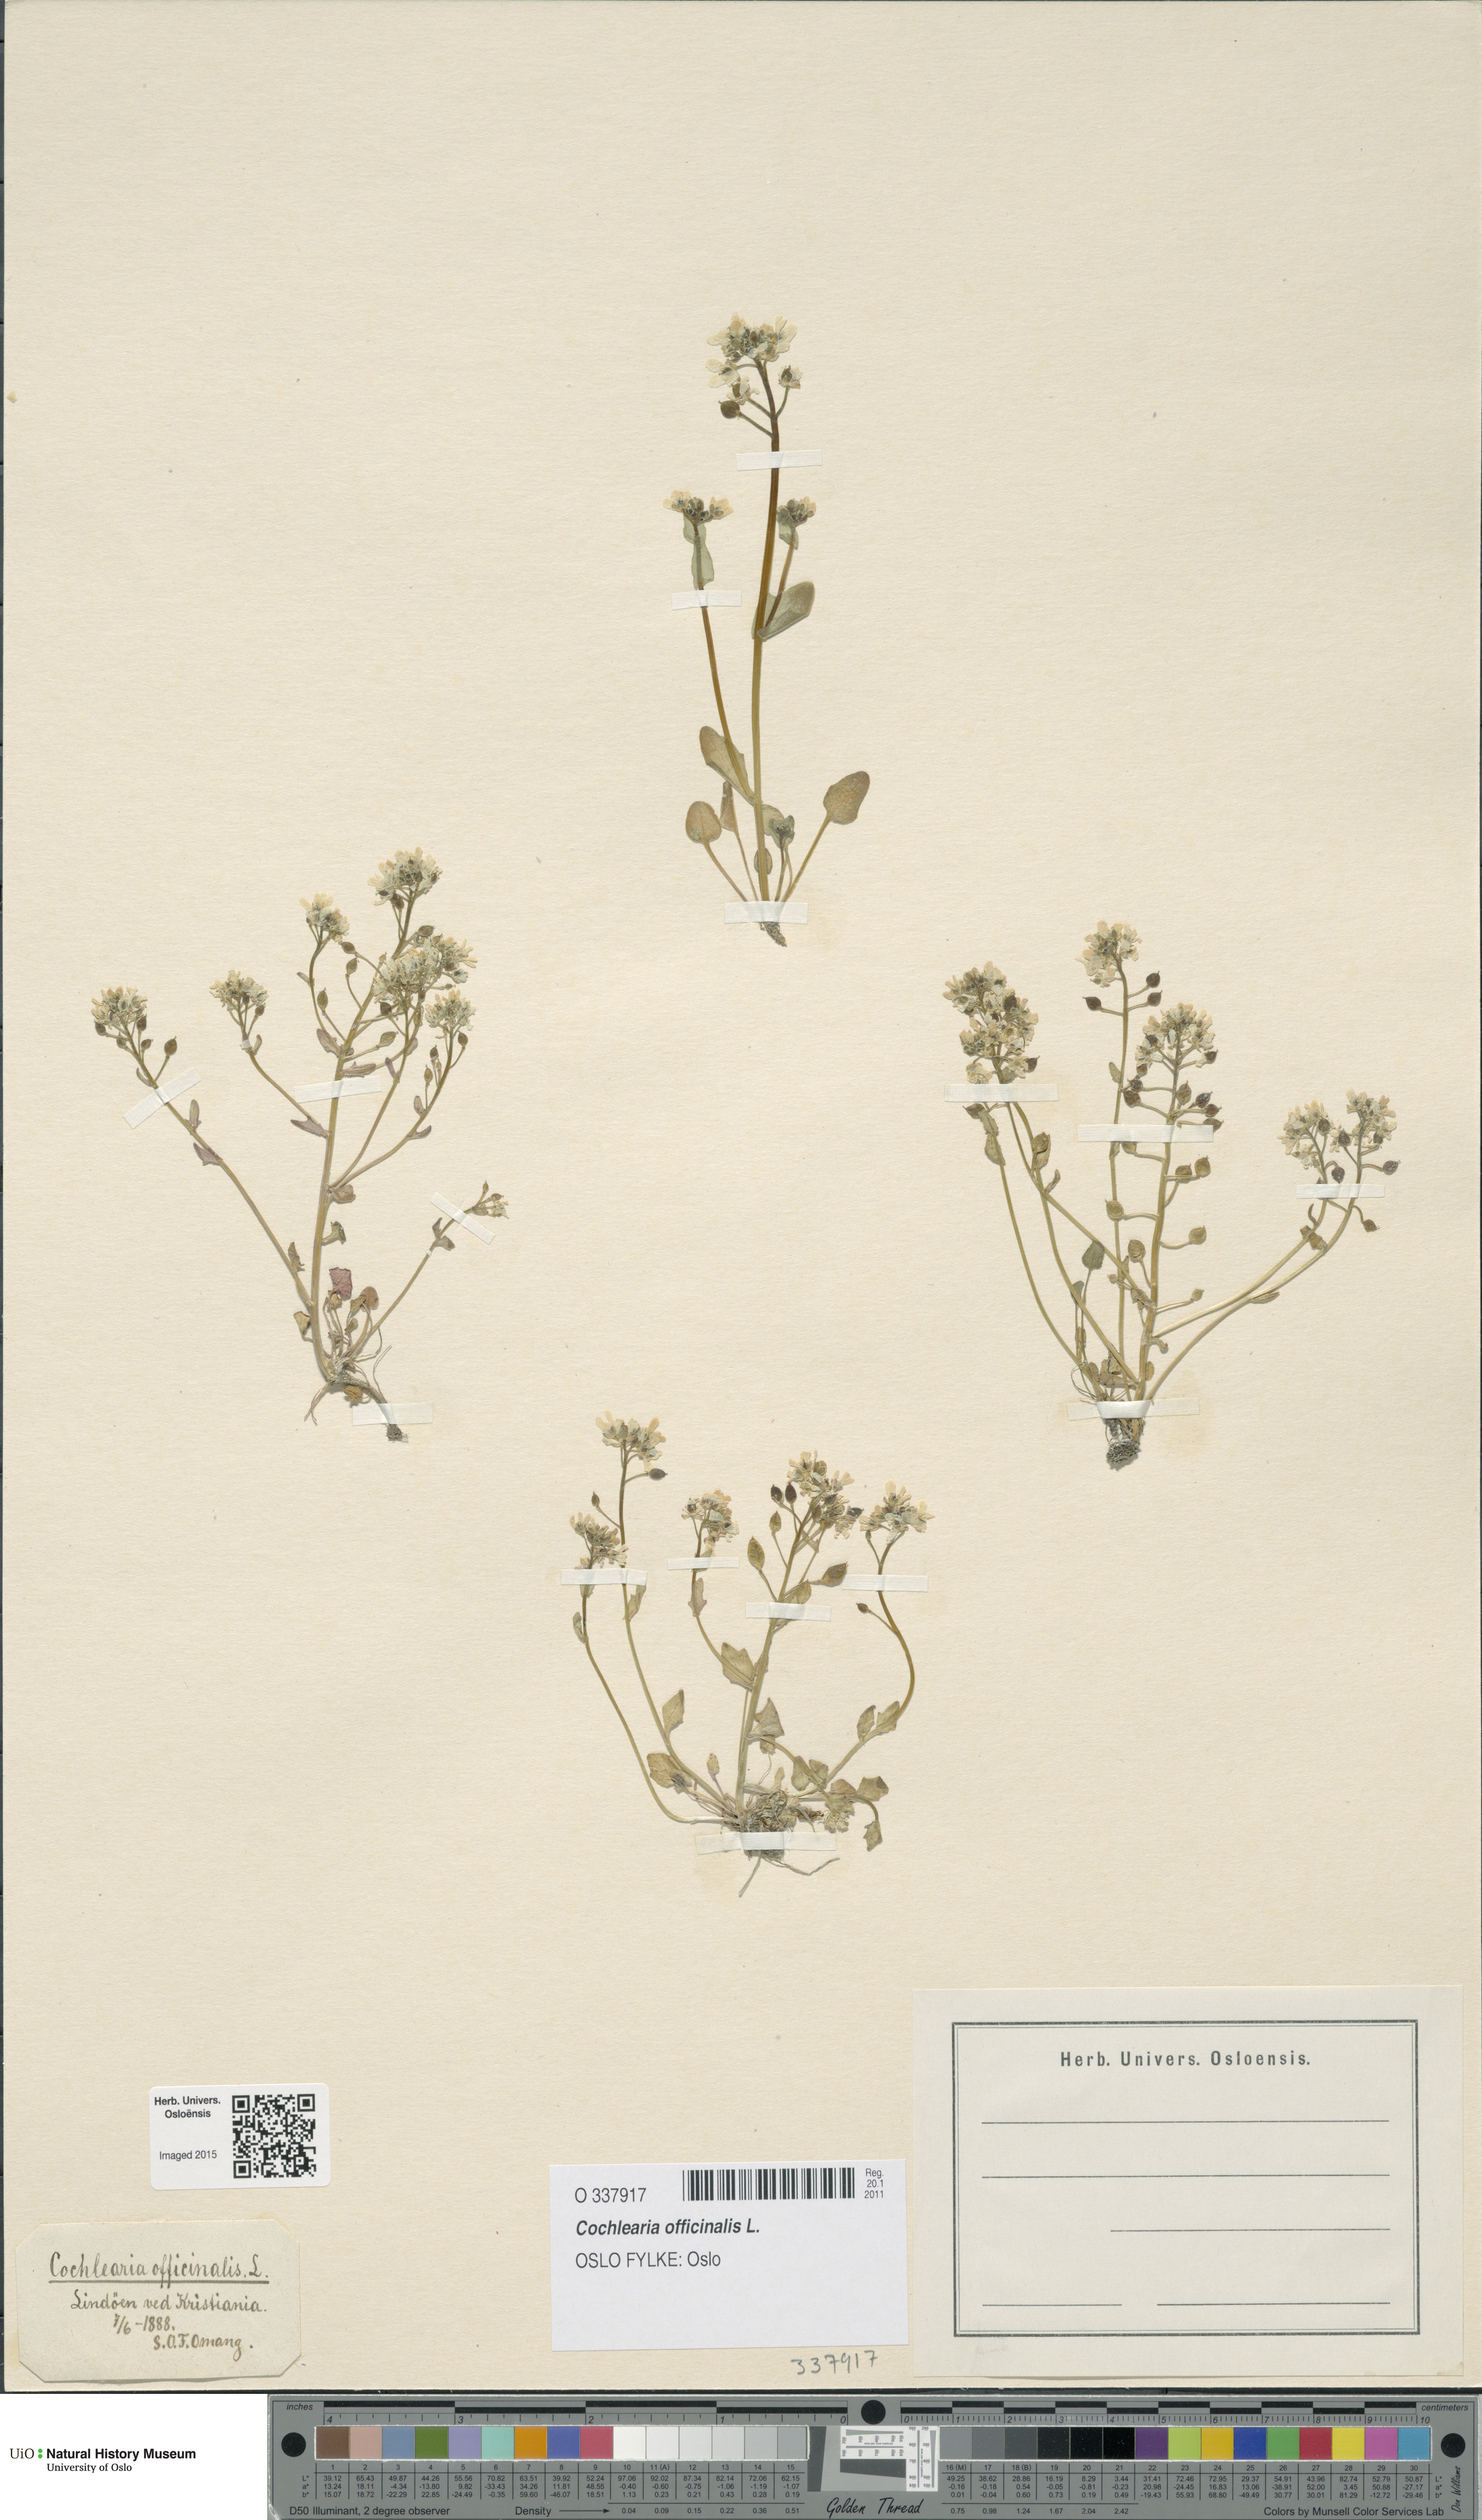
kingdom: Plantae
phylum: Tracheophyta
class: Magnoliopsida
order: Brassicales
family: Brassicaceae
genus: Cochlearia
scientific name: Cochlearia officinalis
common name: Scurvy-grass
